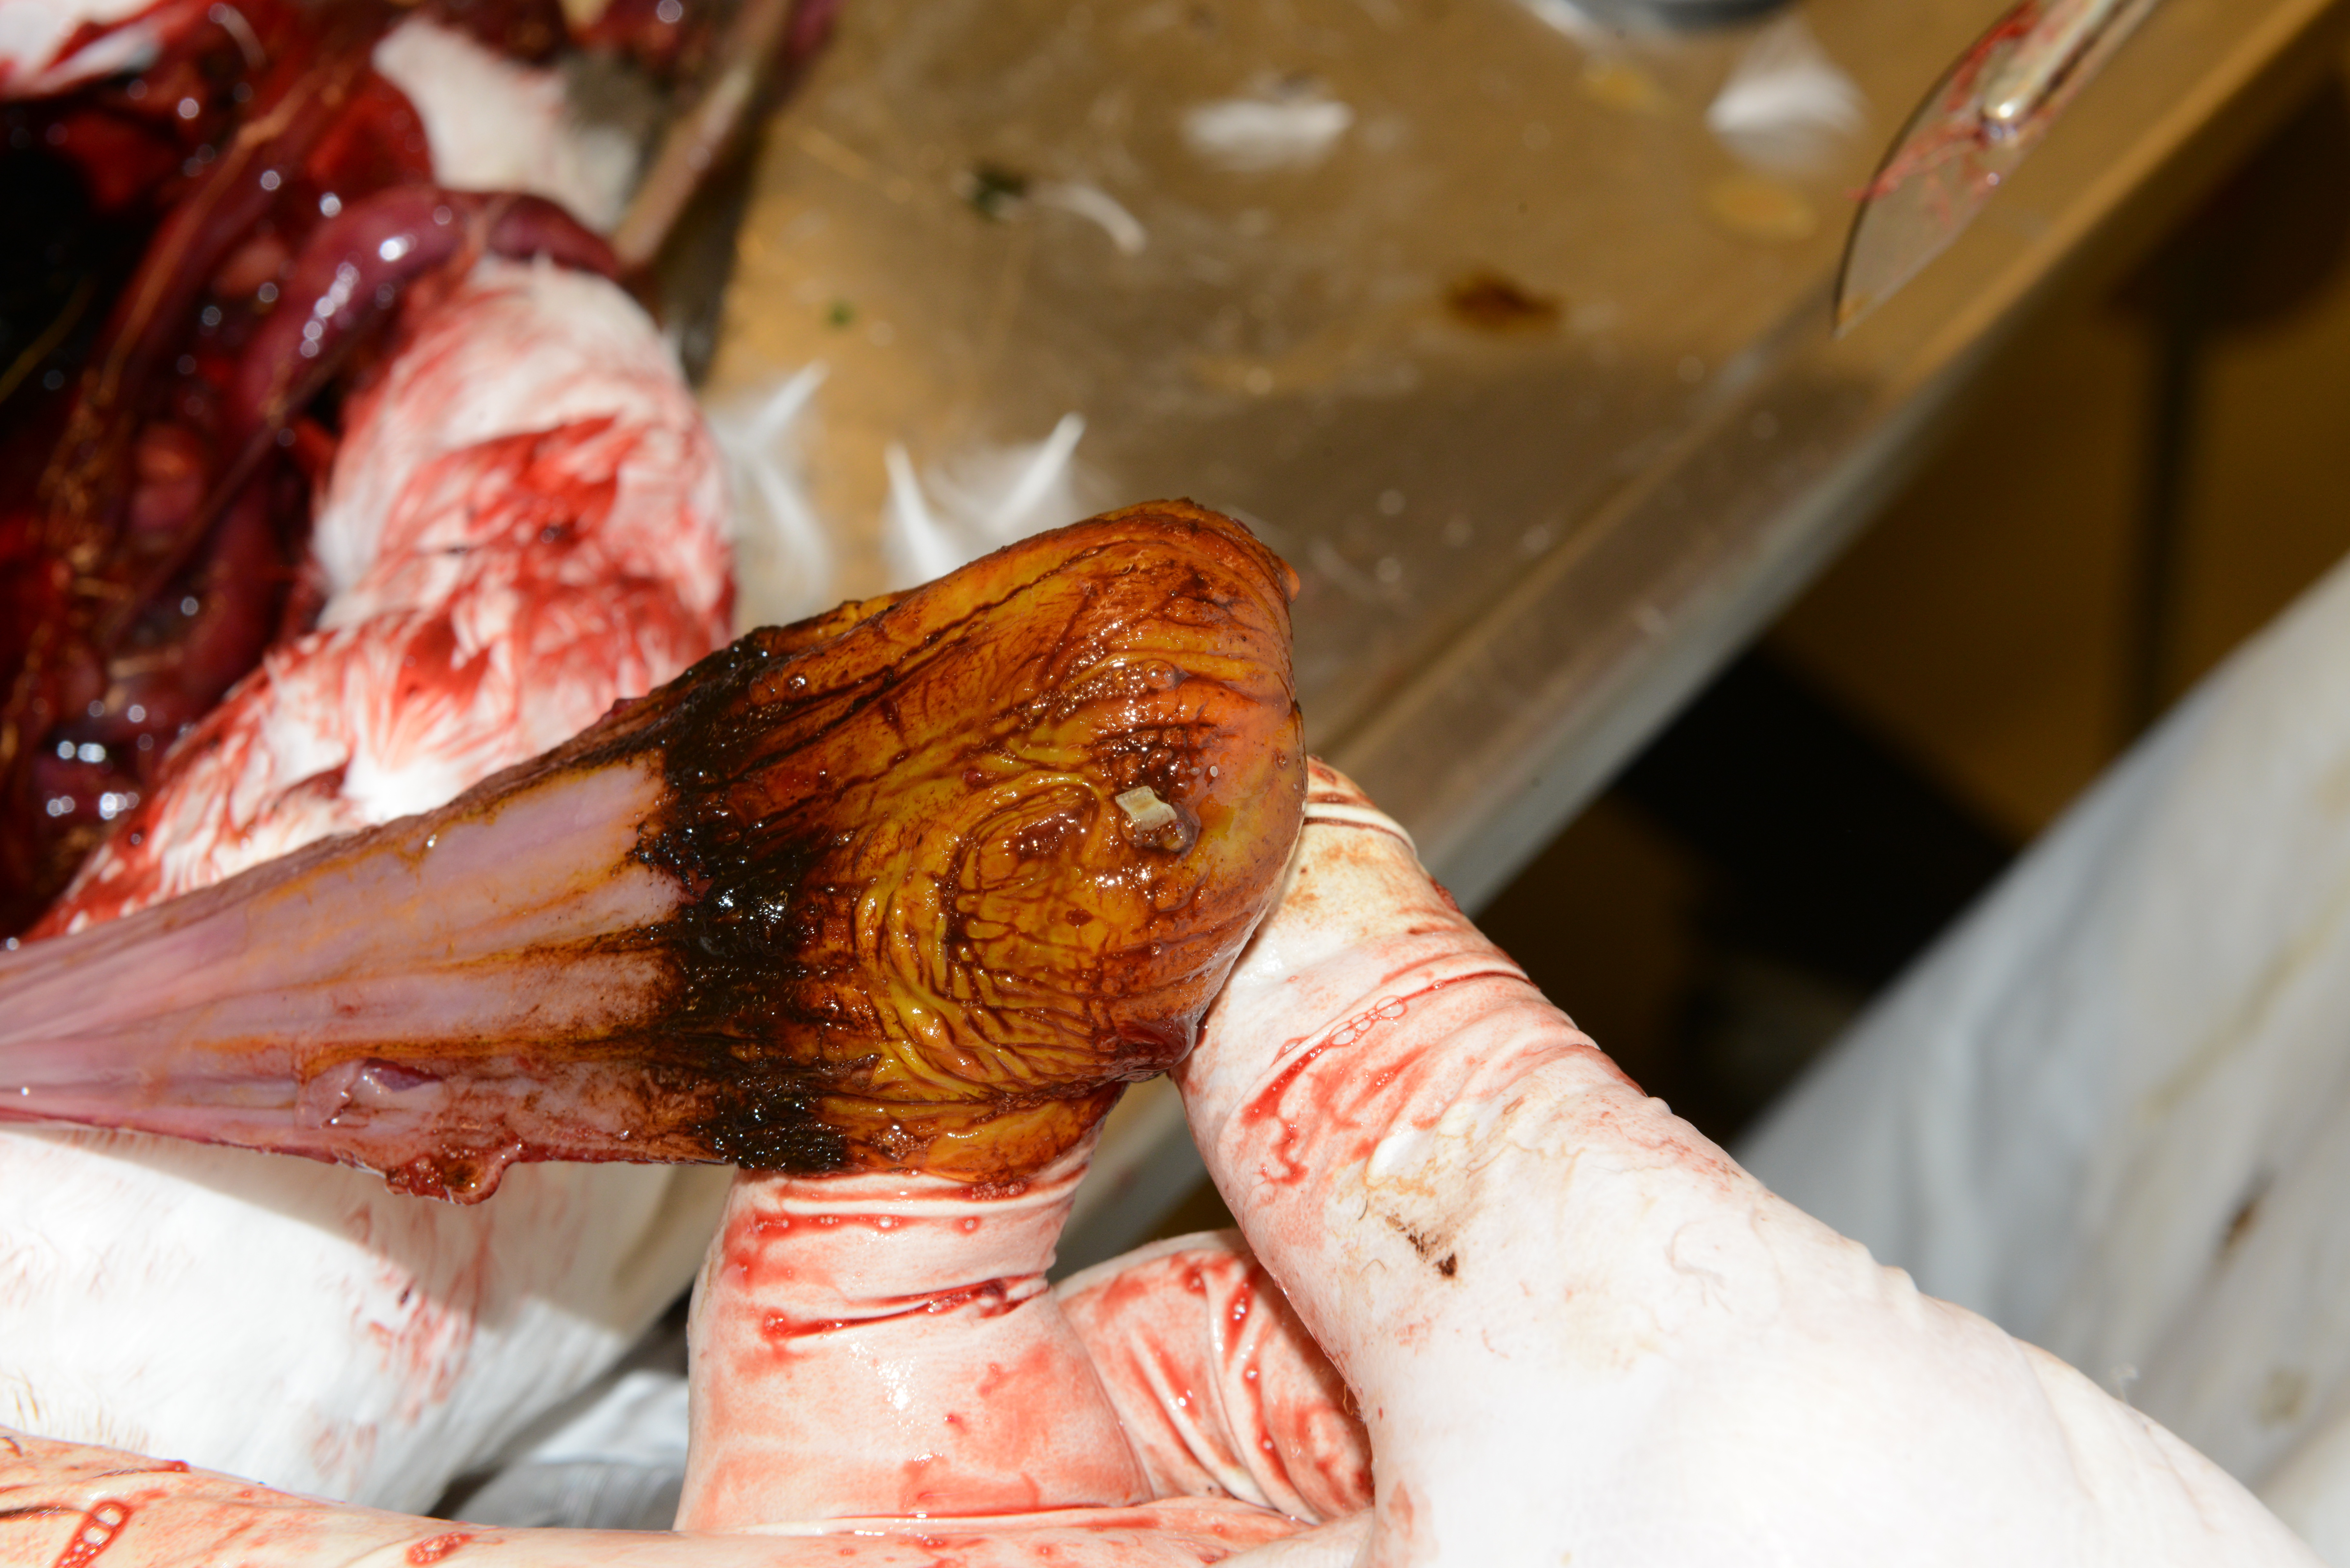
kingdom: Animalia
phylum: Chordata
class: Aves
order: Charadriiformes
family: Alcidae
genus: Uria
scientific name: Uria aalge
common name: Common murre
